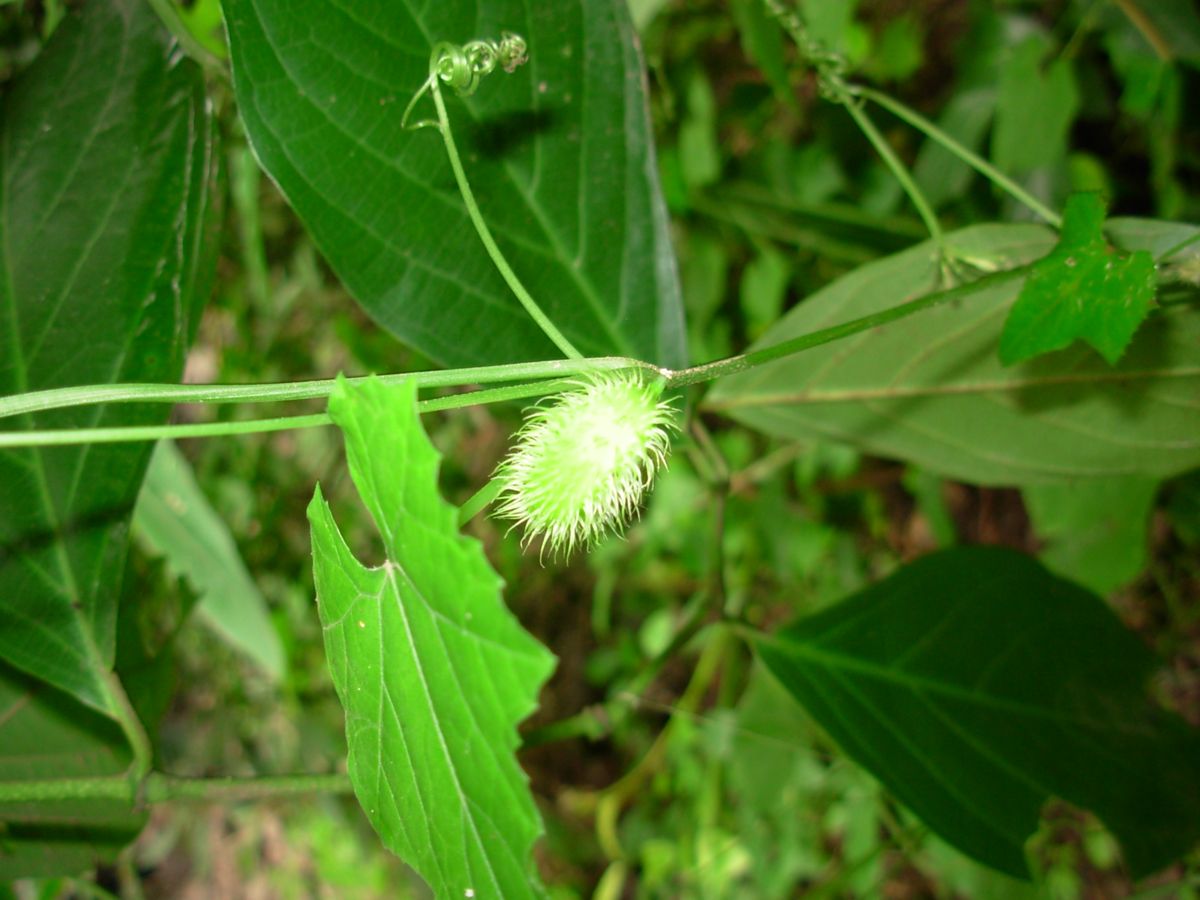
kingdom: Plantae
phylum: Tracheophyta
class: Magnoliopsida
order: Cucurbitales
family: Cucurbitaceae
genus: Cyclanthera
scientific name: Cyclanthera carthagenensis
